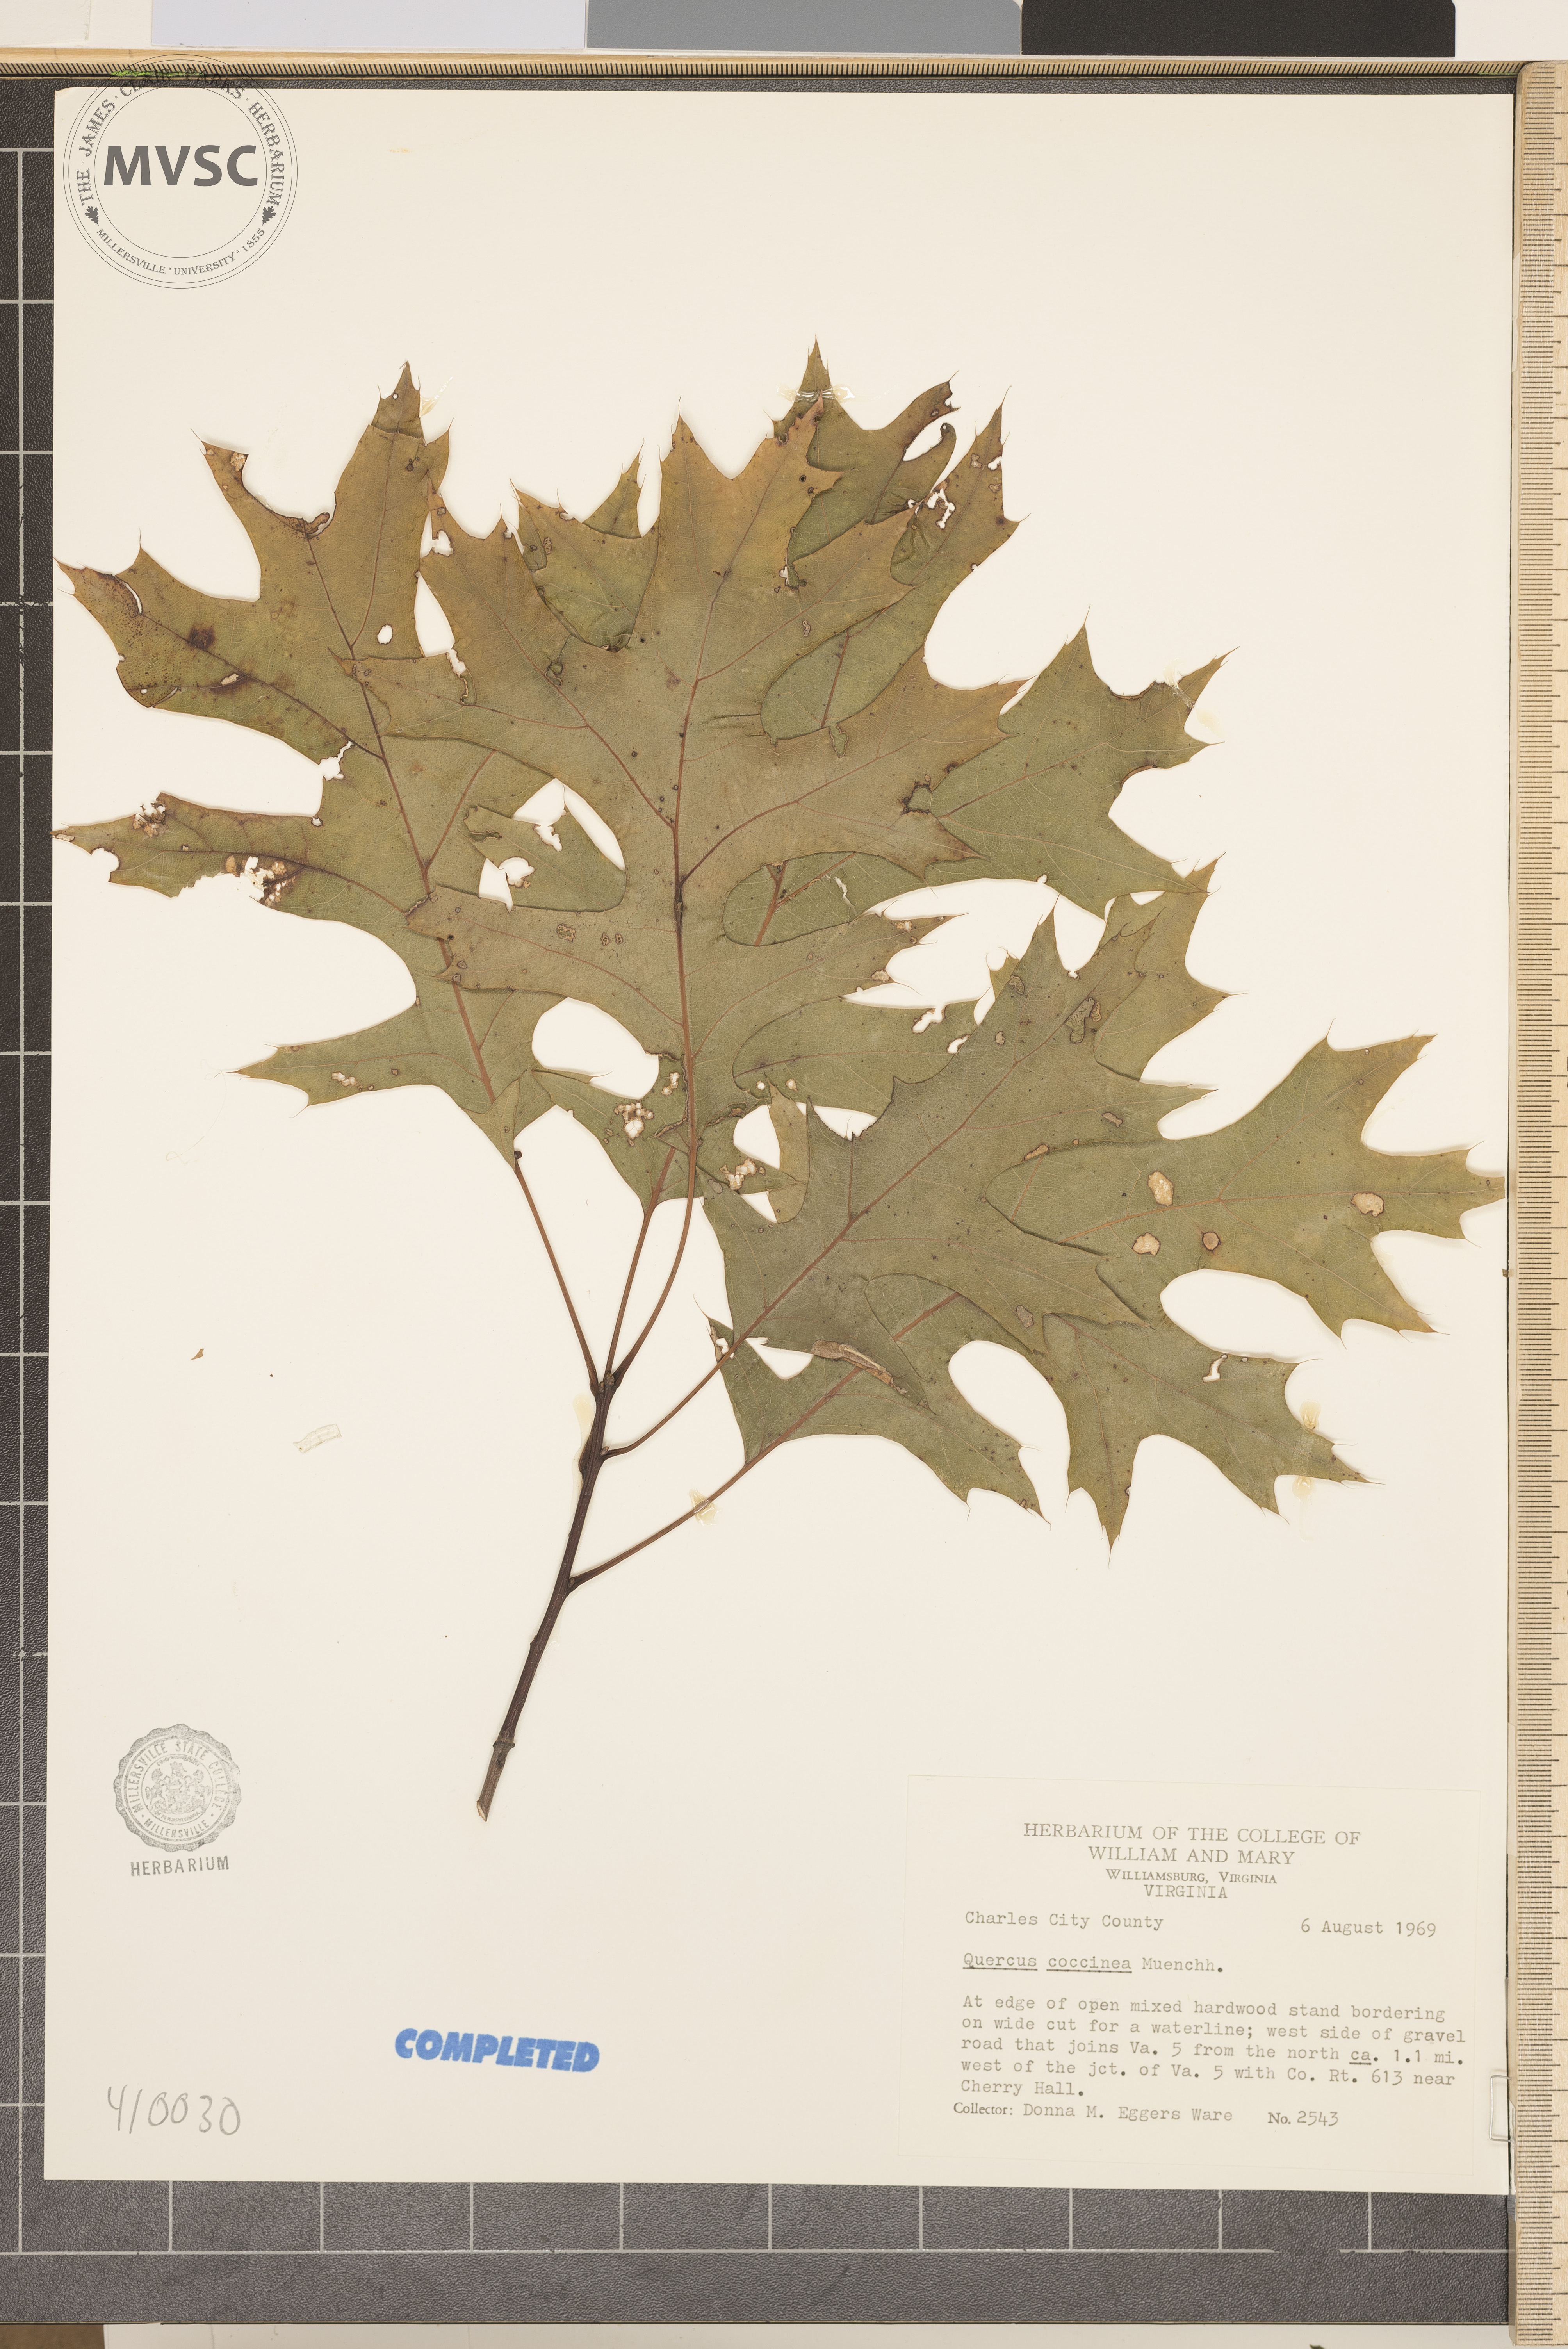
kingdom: Plantae
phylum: Tracheophyta
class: Magnoliopsida
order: Fagales
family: Fagaceae
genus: Quercus
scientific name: Quercus coccinea
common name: scarlet oak
